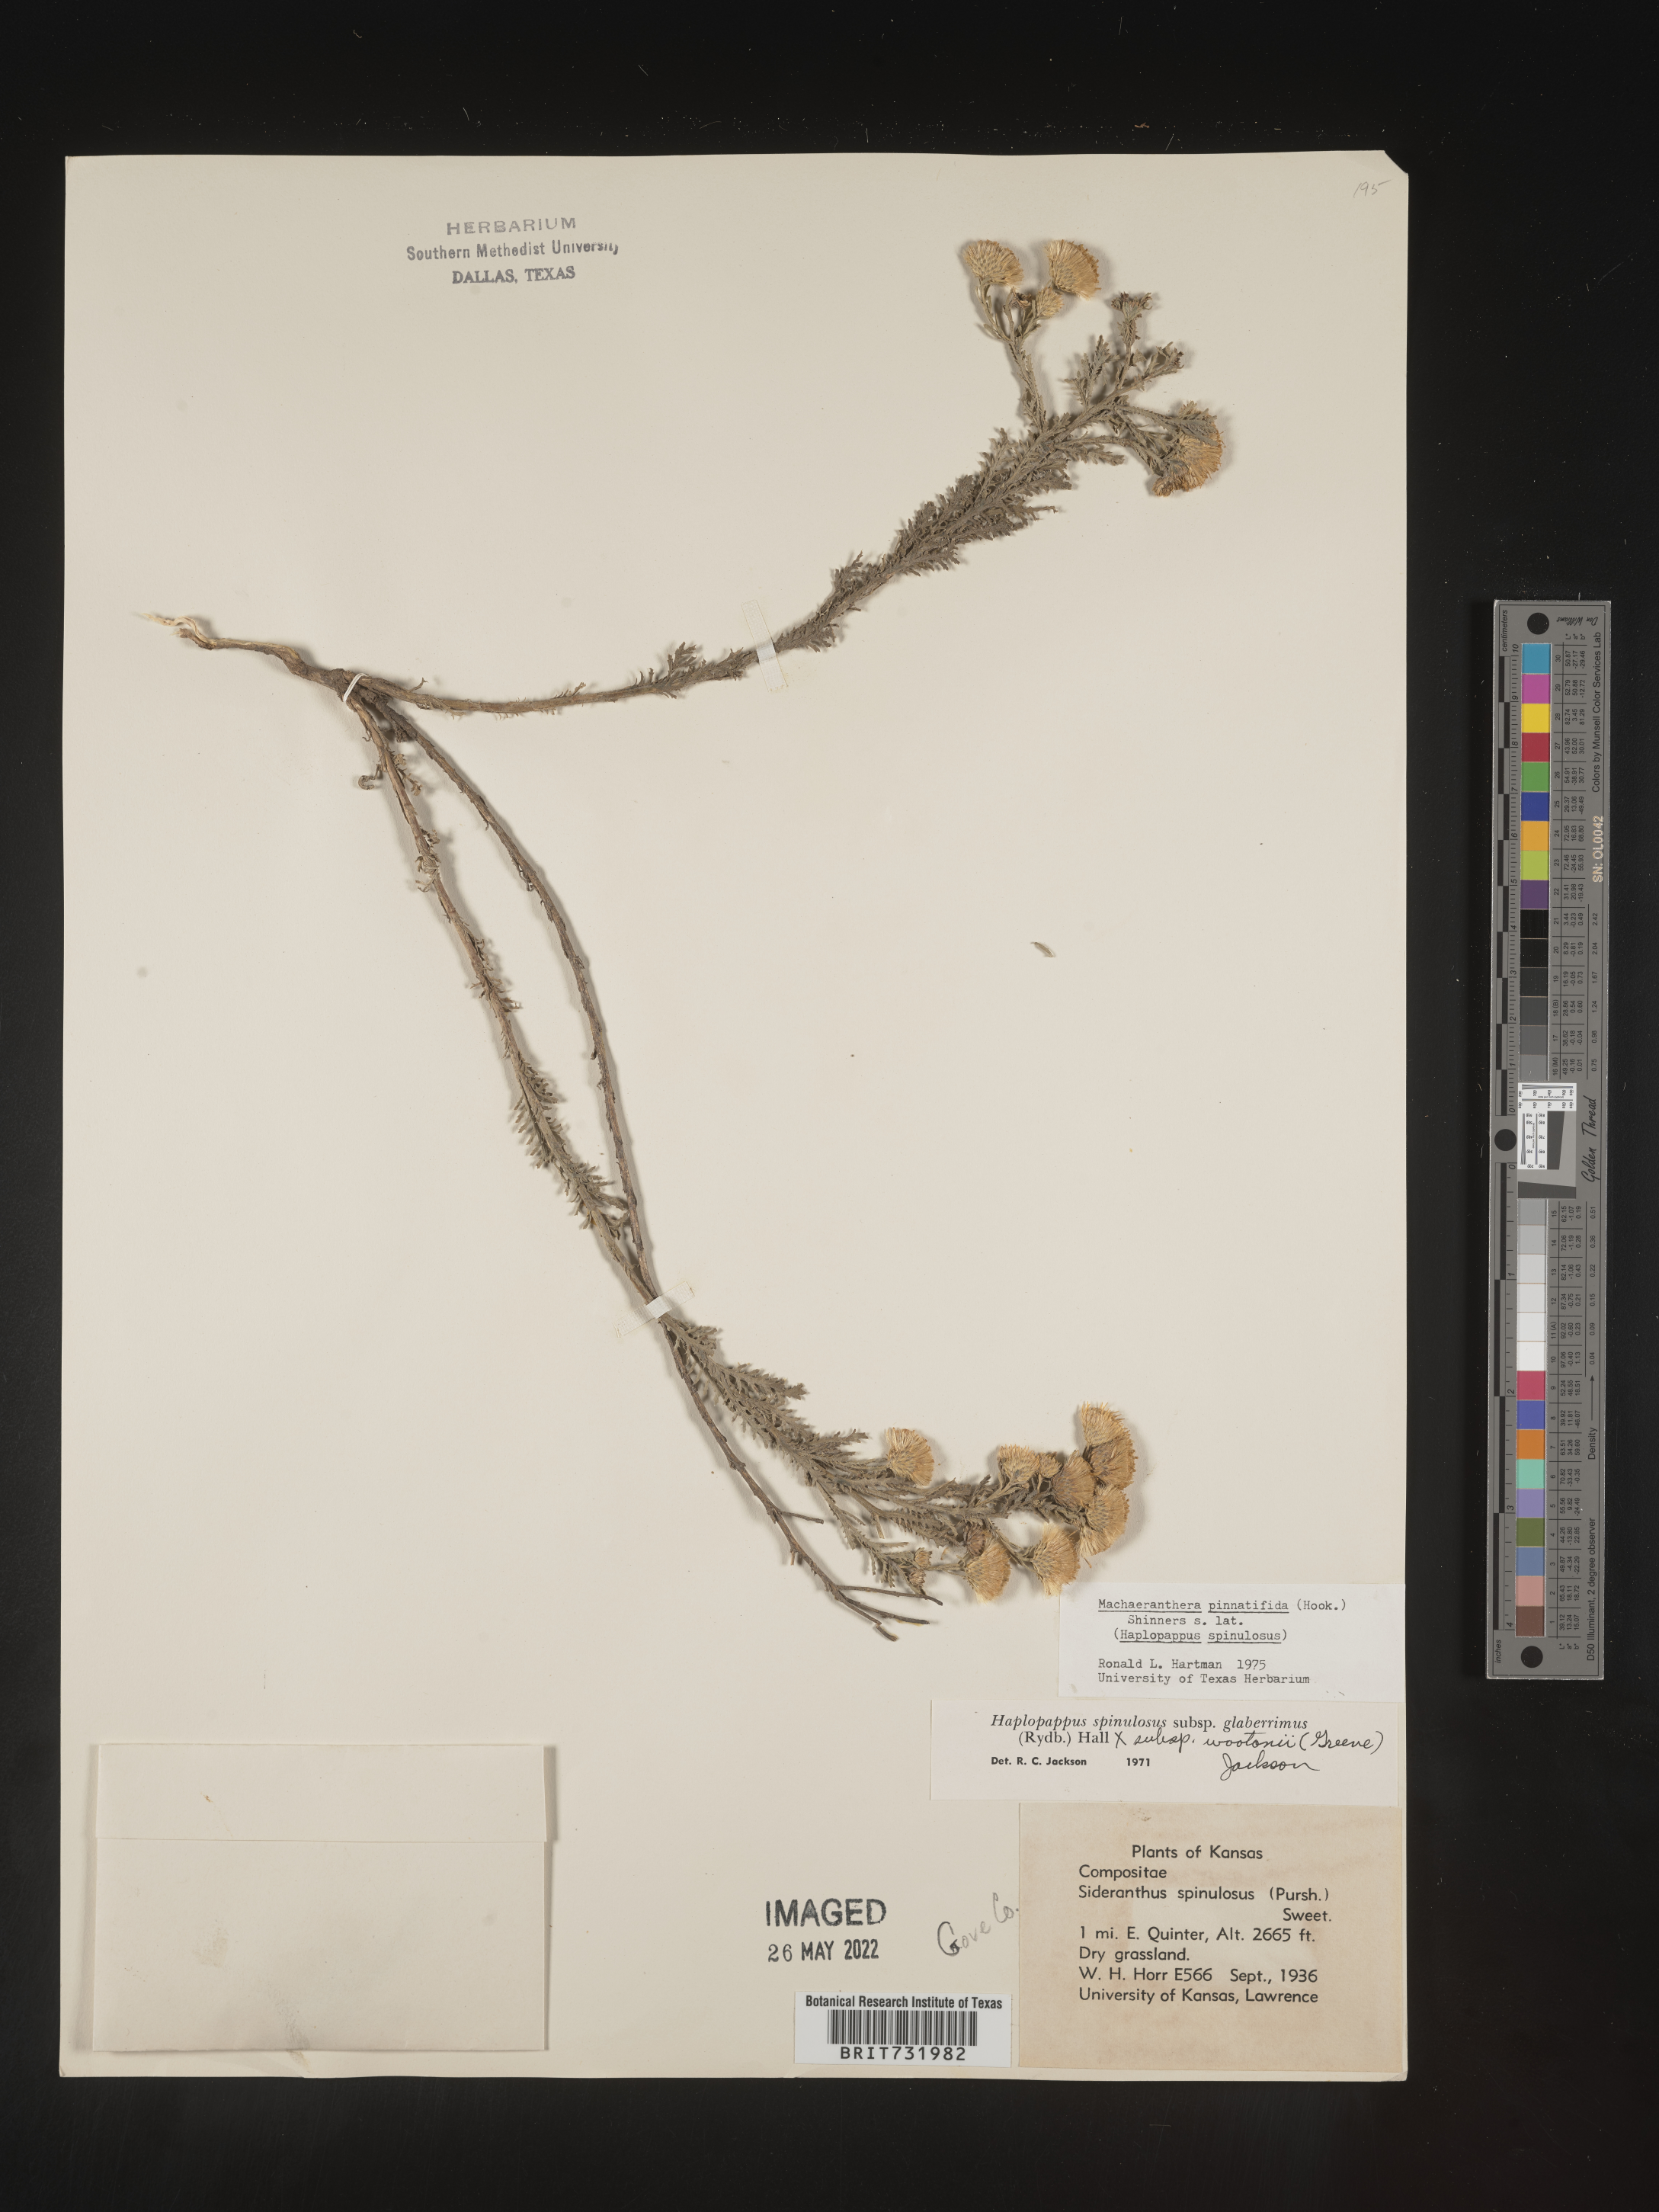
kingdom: Plantae
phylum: Tracheophyta
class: Magnoliopsida
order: Asterales
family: Asteraceae
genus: Xanthisma
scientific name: Xanthisma spinulosum
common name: Spiny goldenweed
